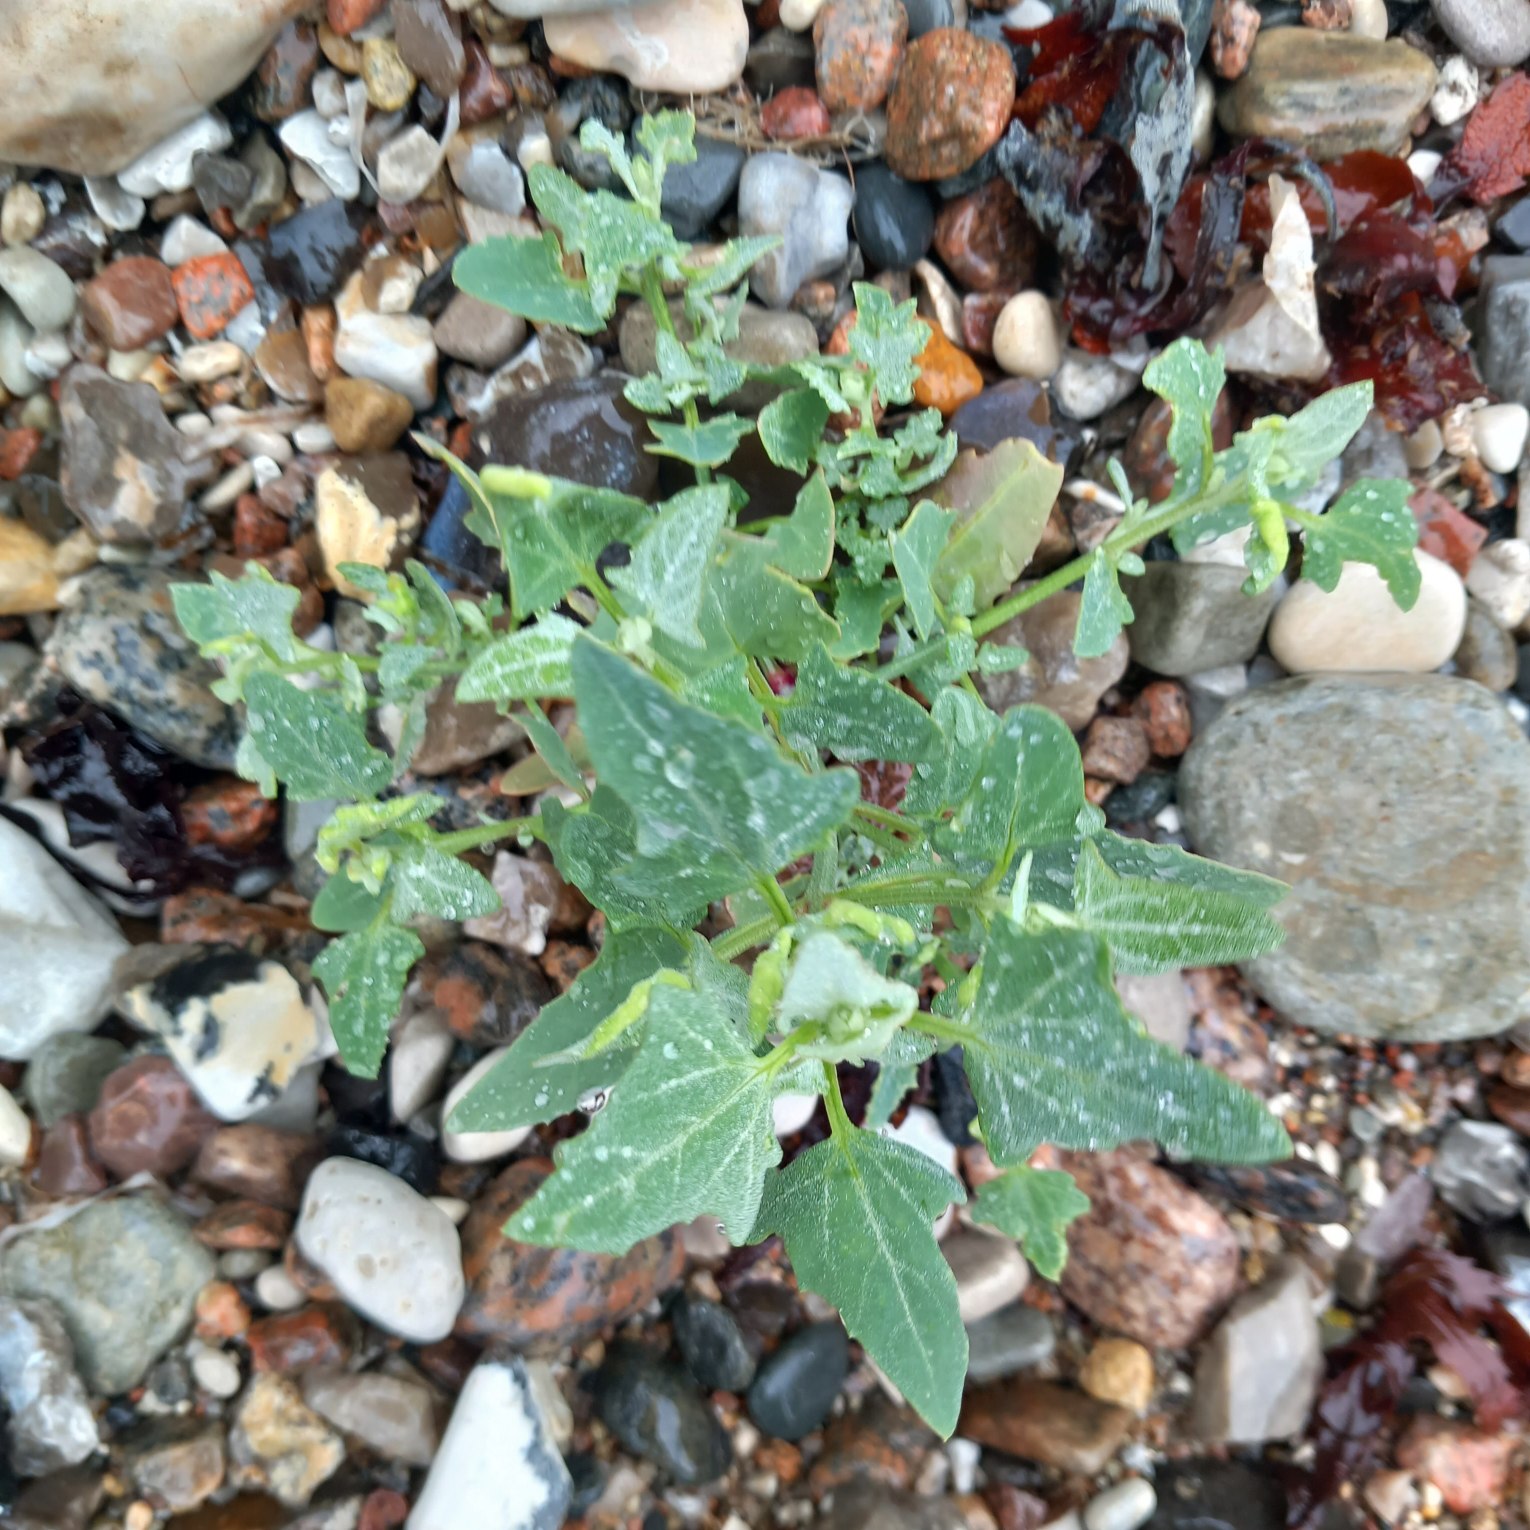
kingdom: Plantae
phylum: Tracheophyta
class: Magnoliopsida
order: Caryophyllales
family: Amaranthaceae
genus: Atriplex
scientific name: Atriplex prostrata
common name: Spyd-mælde
